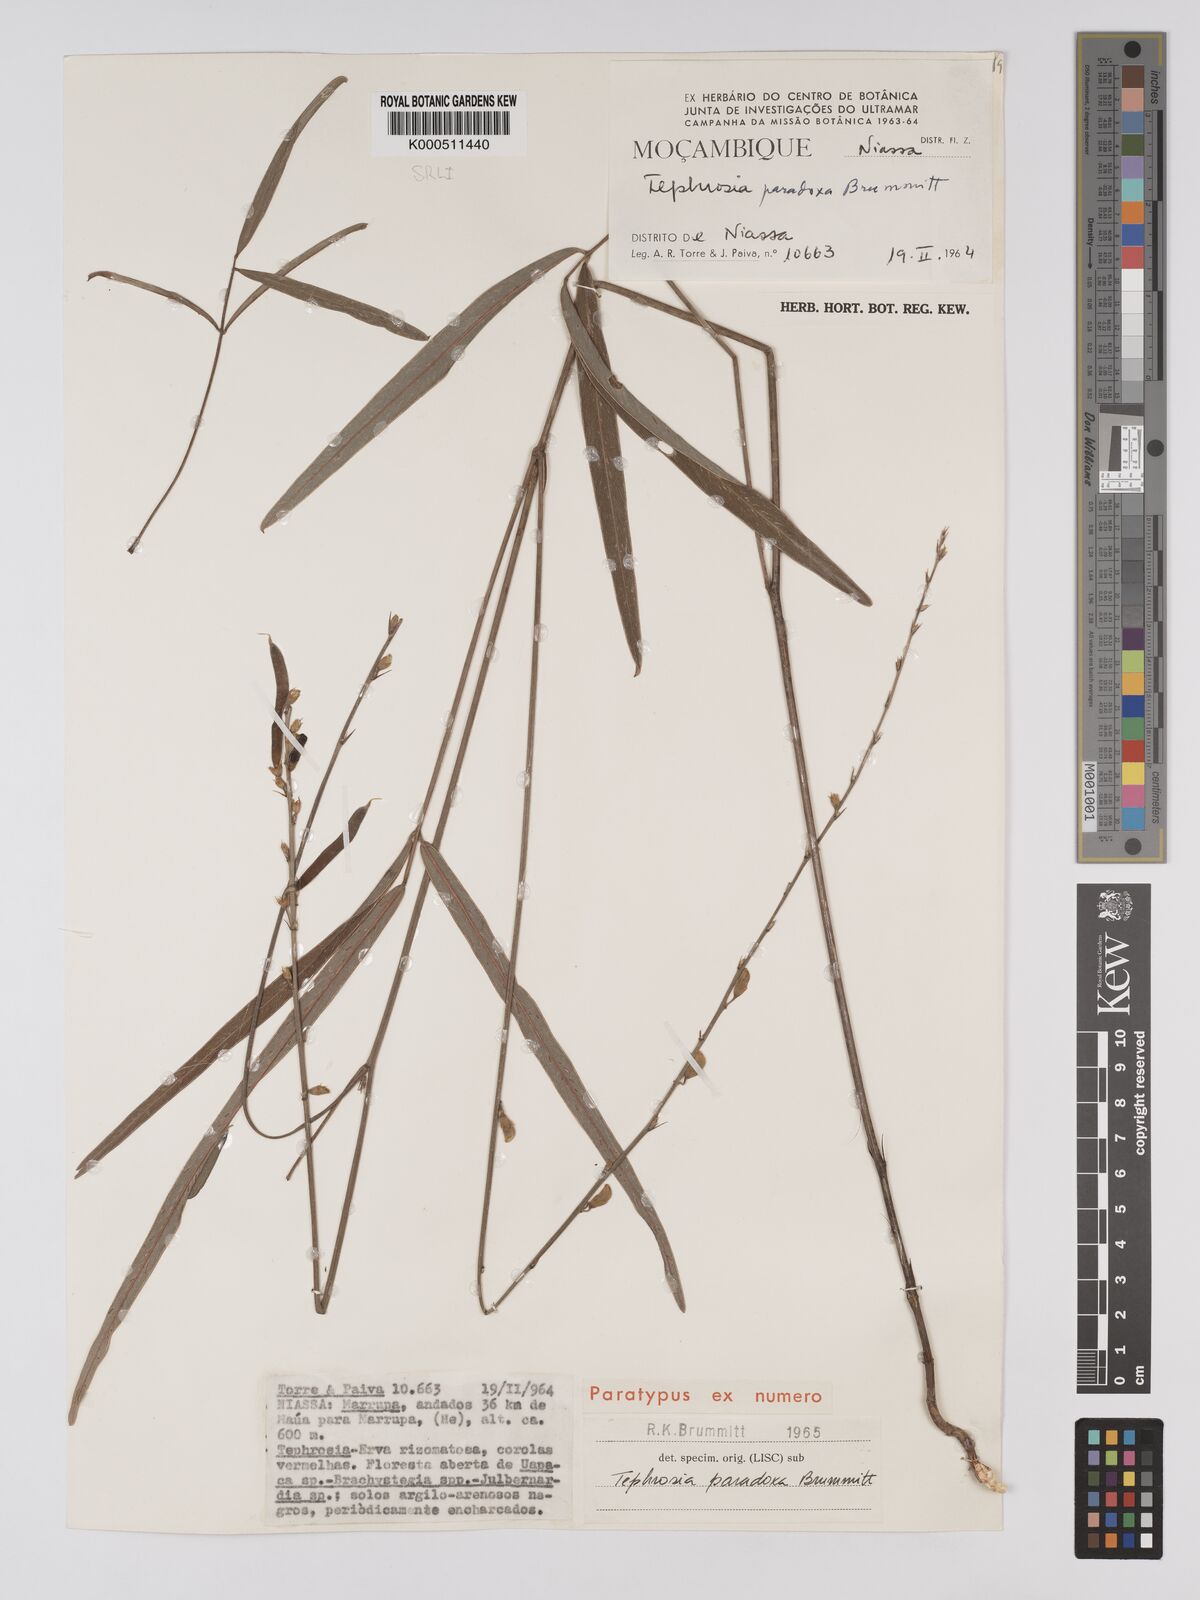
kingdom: Plantae
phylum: Tracheophyta
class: Magnoliopsida
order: Fabales
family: Fabaceae
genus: Tephrosia
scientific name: Tephrosia paradoxa
